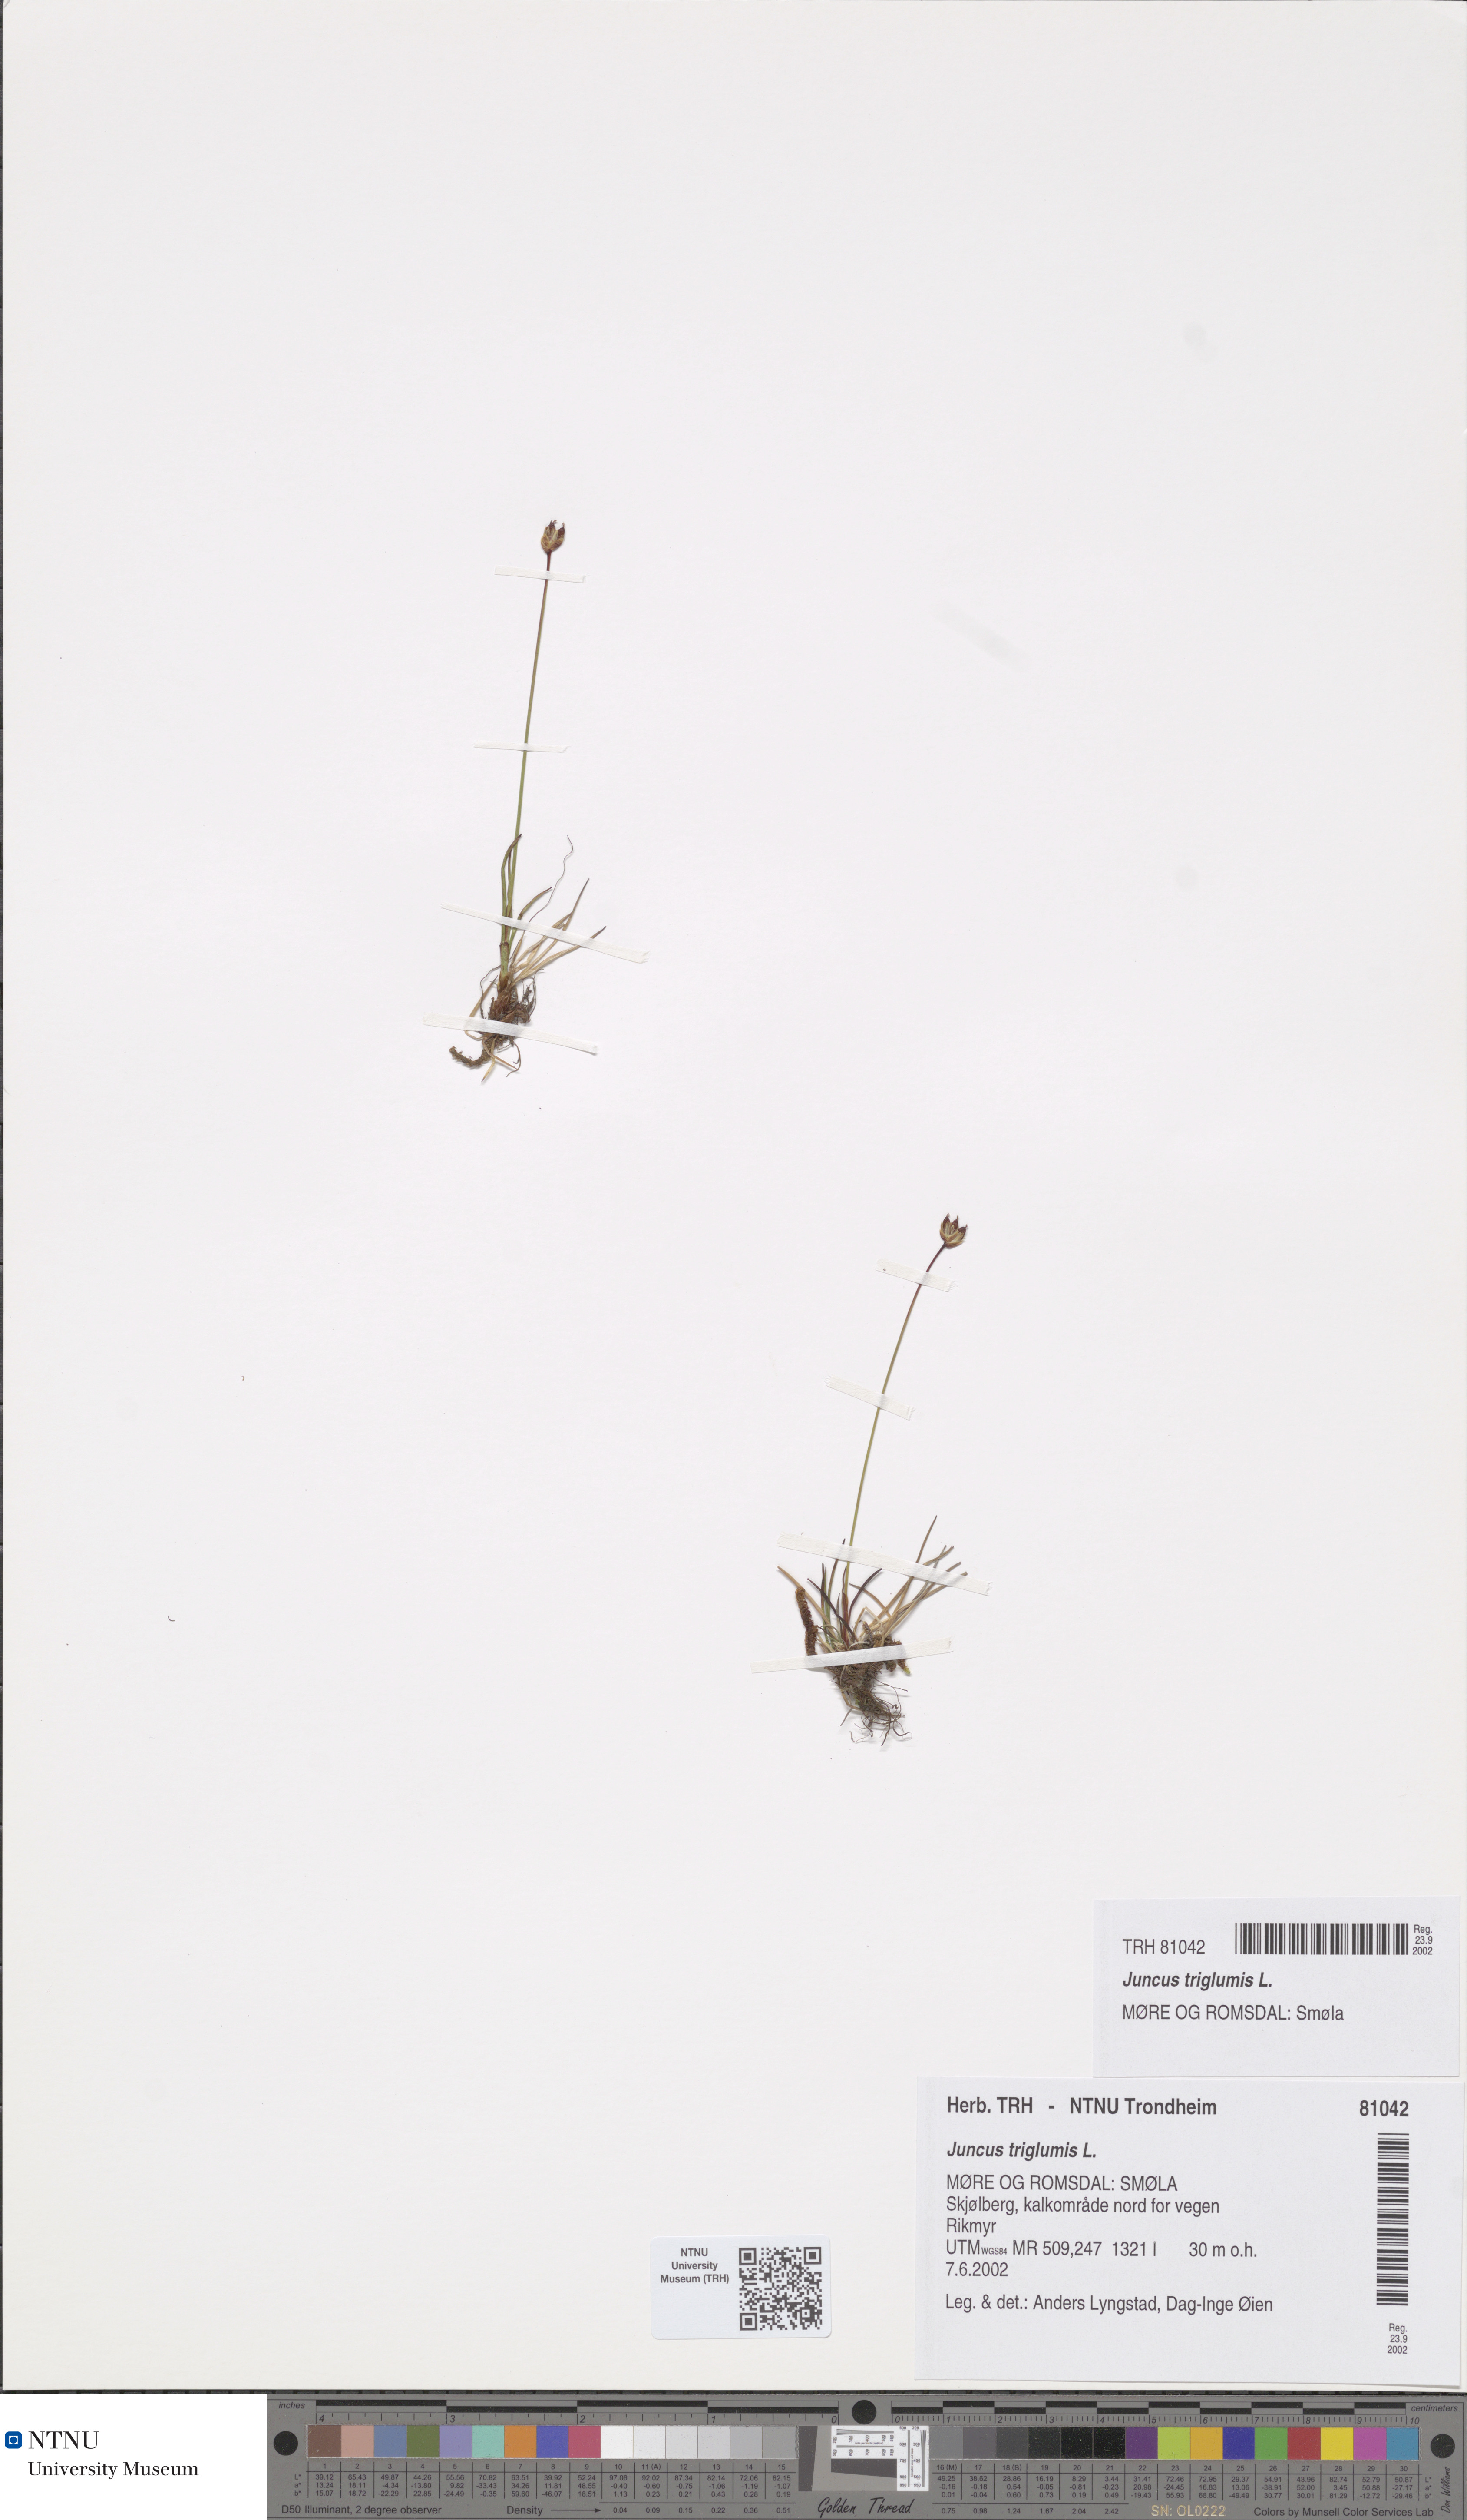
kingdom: Plantae
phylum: Tracheophyta
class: Liliopsida
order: Poales
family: Juncaceae
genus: Juncus
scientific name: Juncus triglumis
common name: Three-flowered rush
